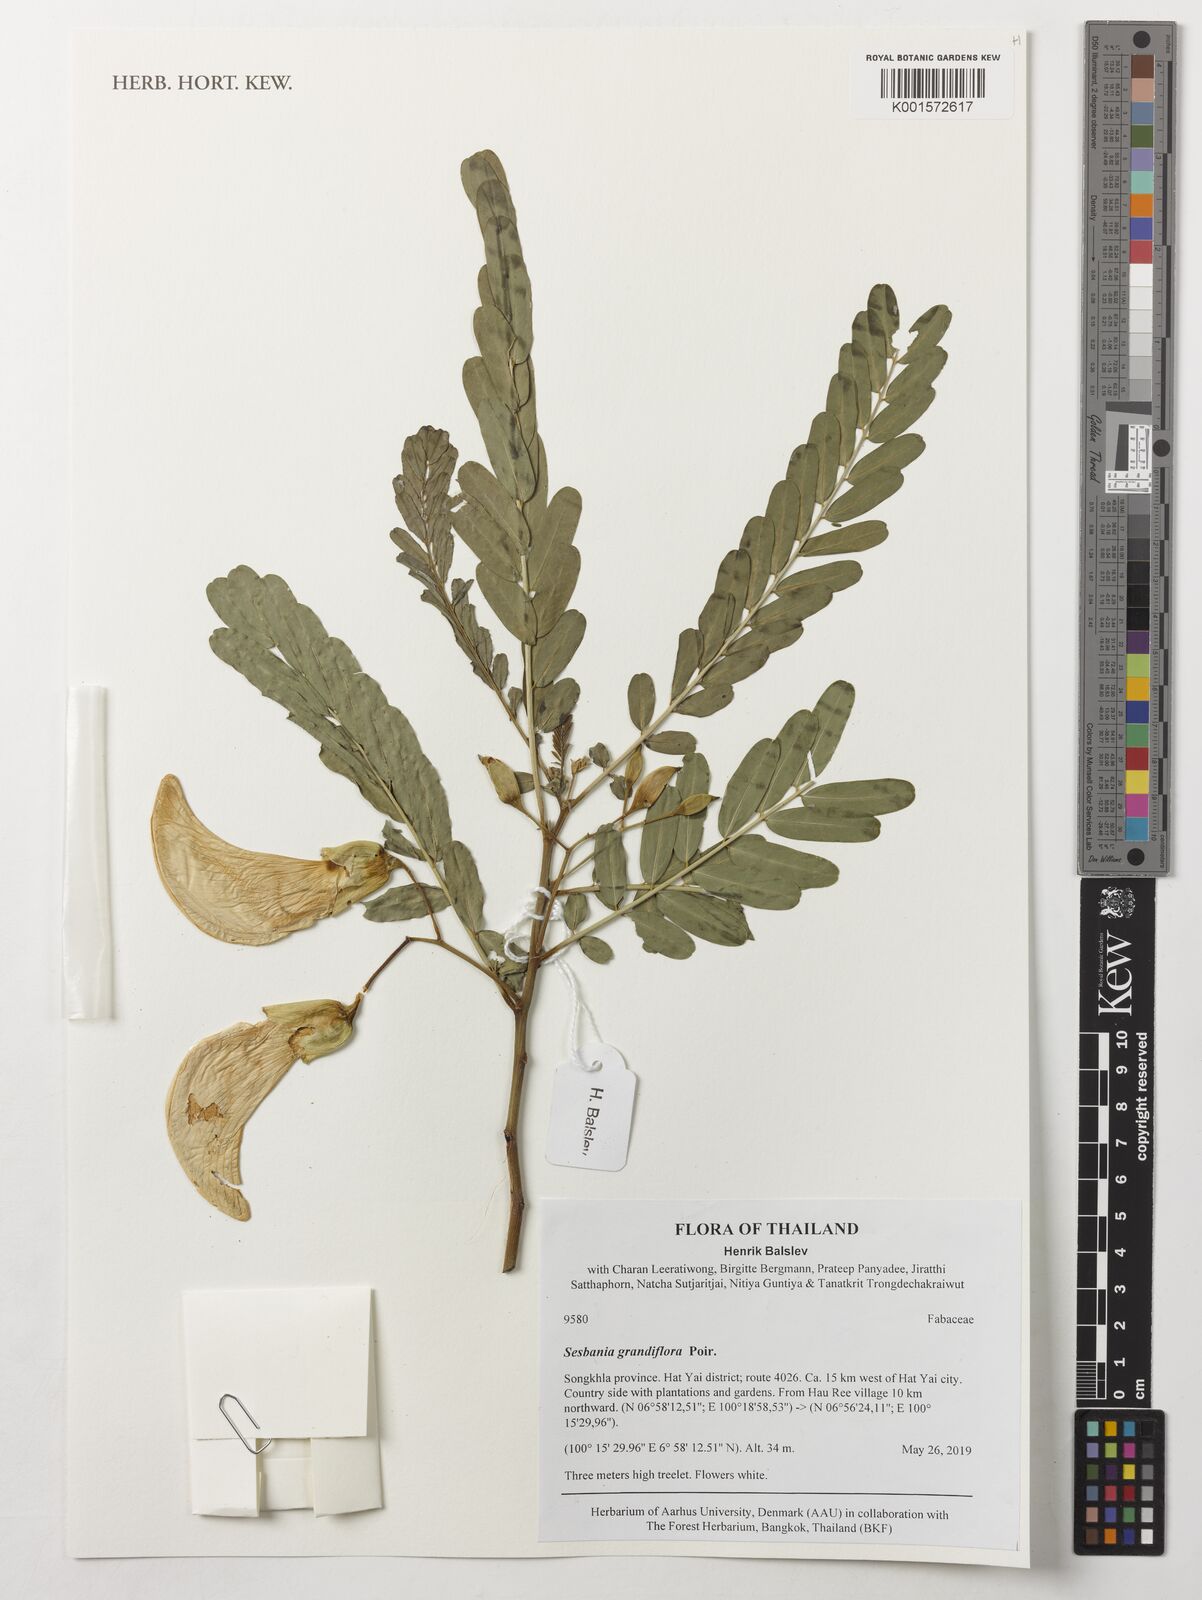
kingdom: Plantae
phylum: Tracheophyta
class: Magnoliopsida
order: Fabales
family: Fabaceae
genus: Sesbania
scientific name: Sesbania grandiflora
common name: Vegetable-hummingbird
